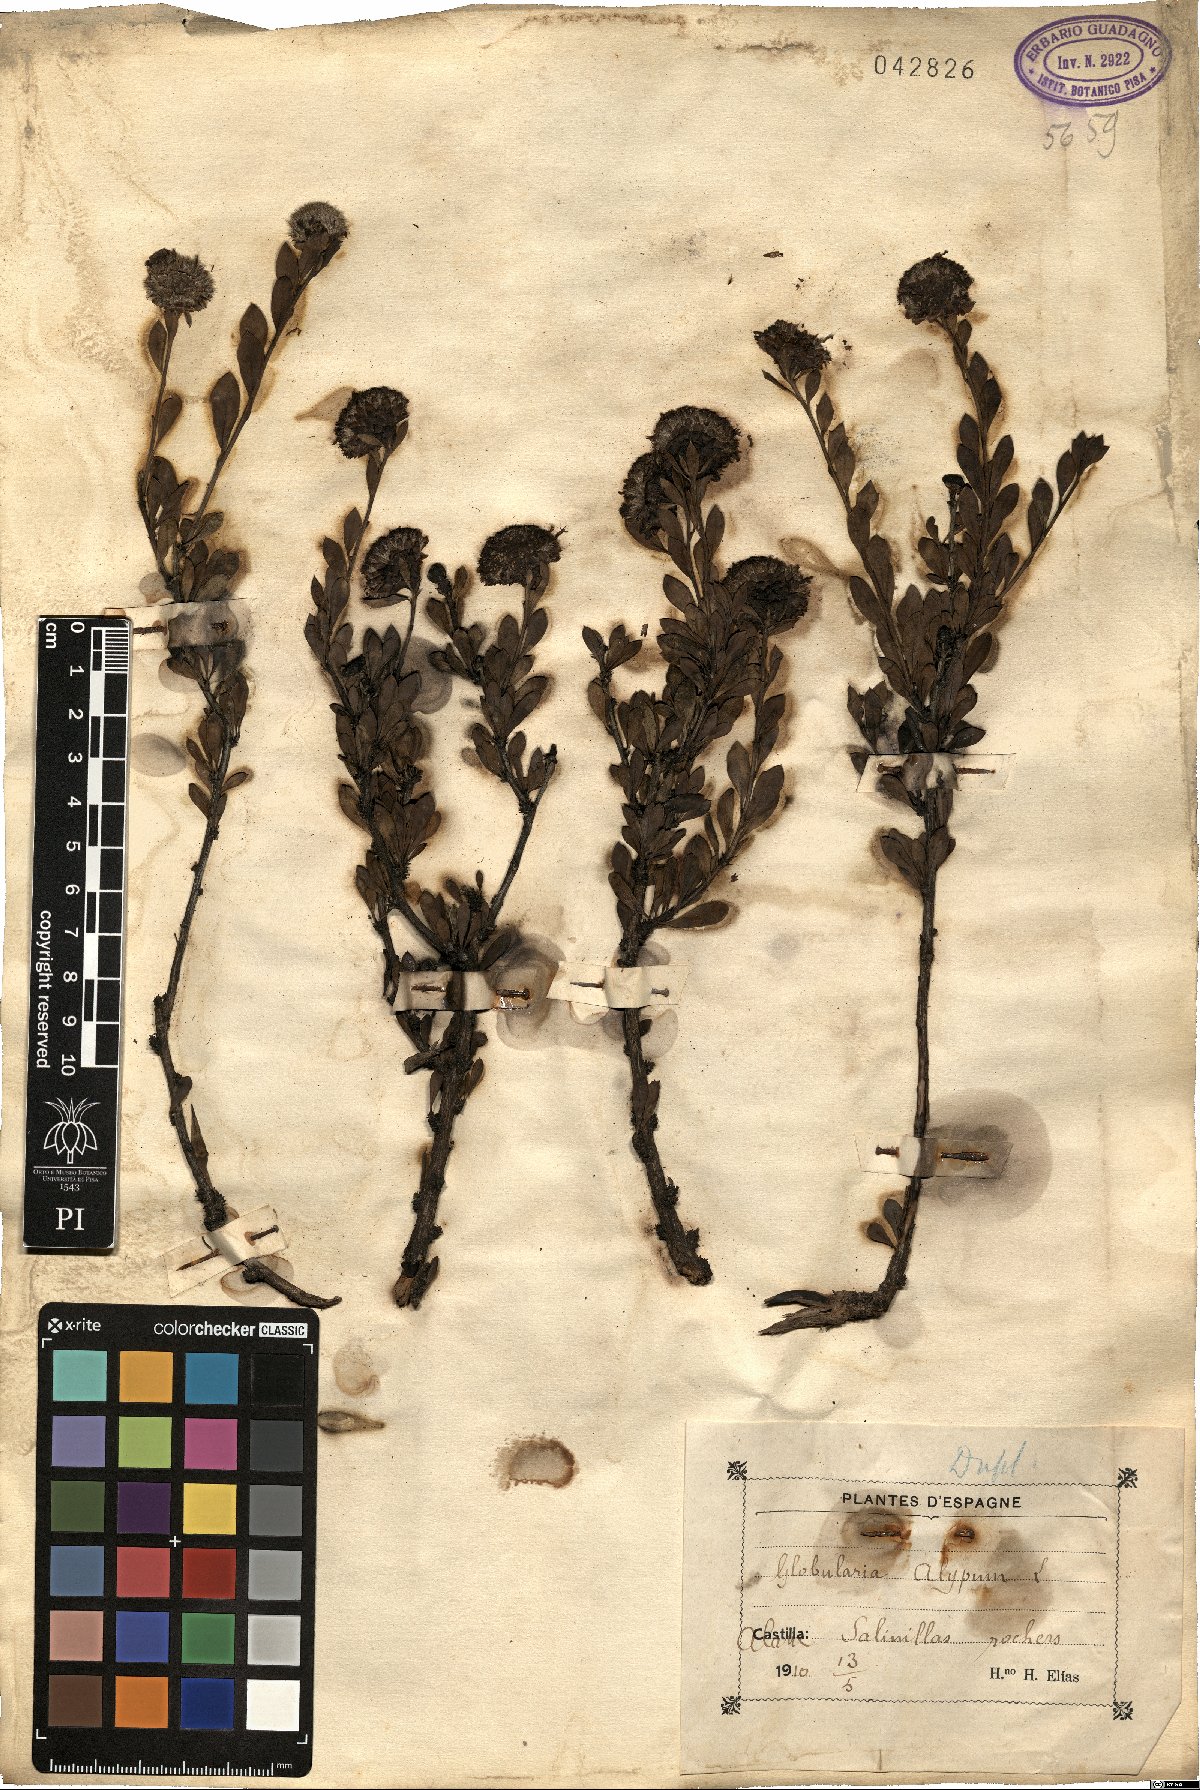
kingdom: Plantae
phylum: Tracheophyta
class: Magnoliopsida
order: Lamiales
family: Plantaginaceae
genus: Globularia
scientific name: Globularia alypum
